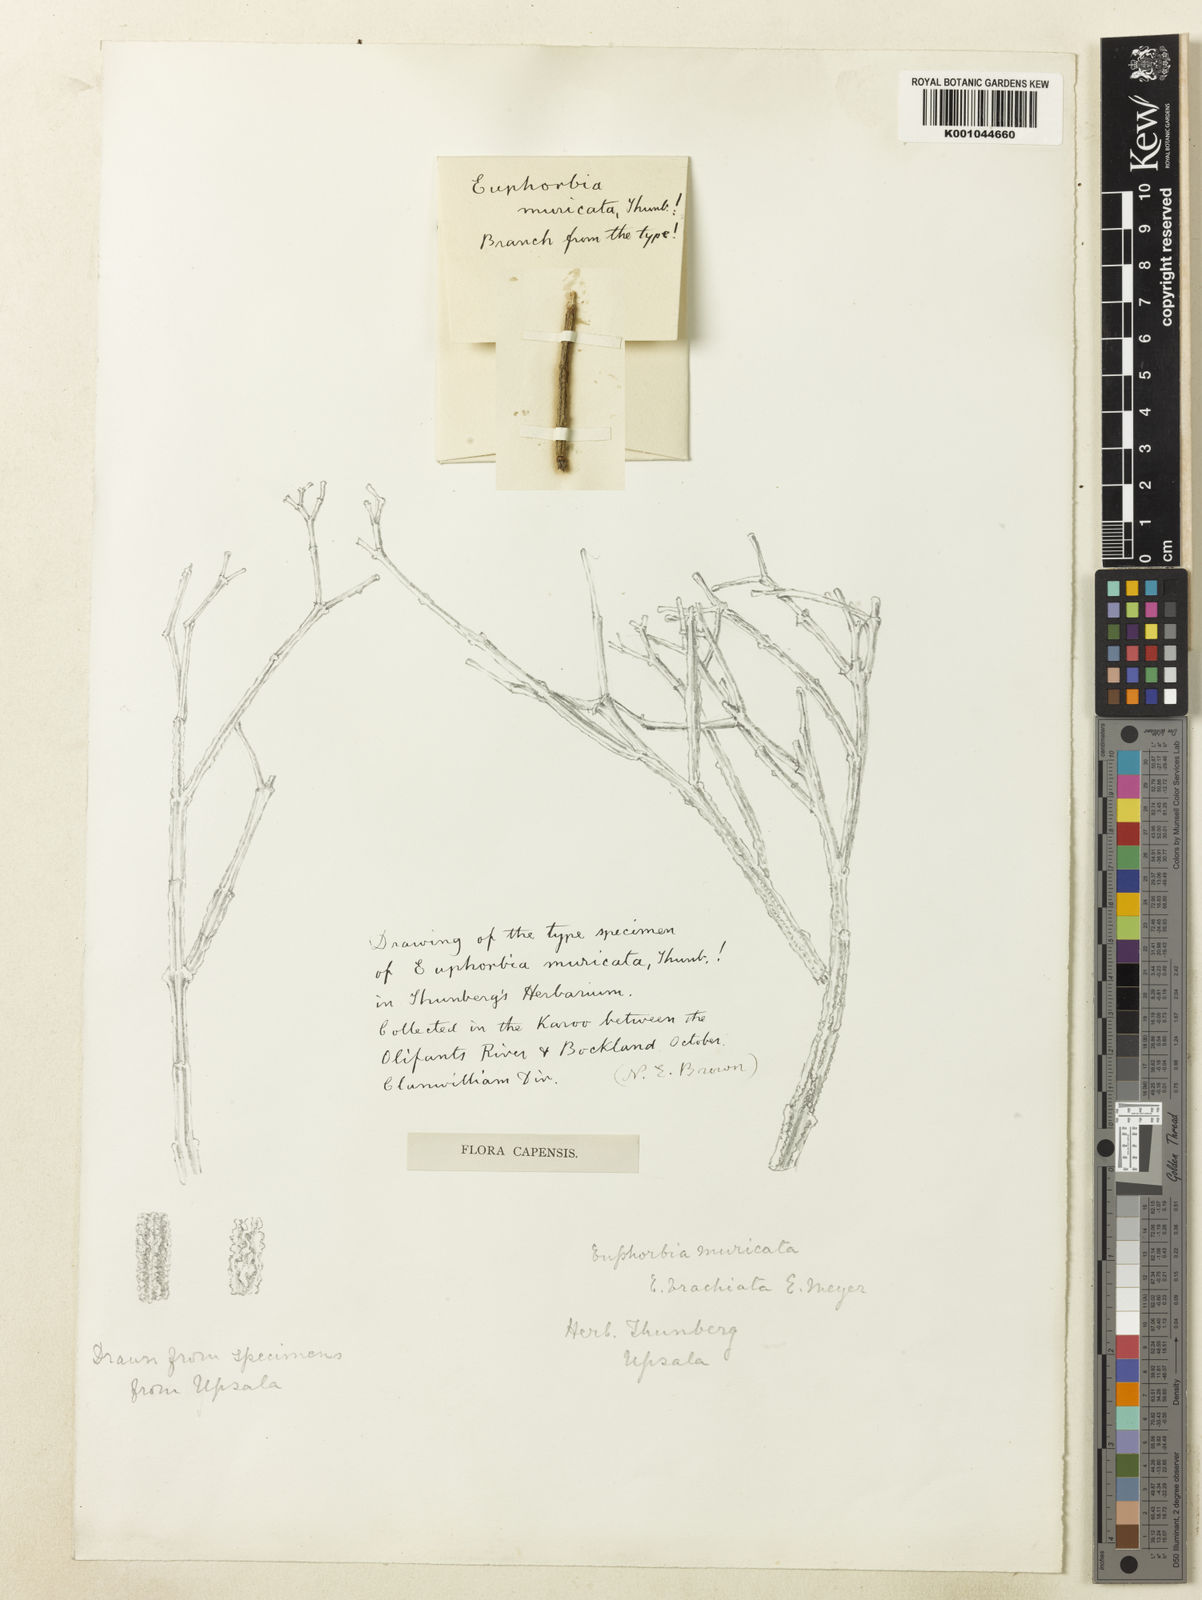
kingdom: Plantae
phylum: Tracheophyta
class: Magnoliopsida
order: Malpighiales
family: Euphorbiaceae
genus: Euphorbia
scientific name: Euphorbia muricata
